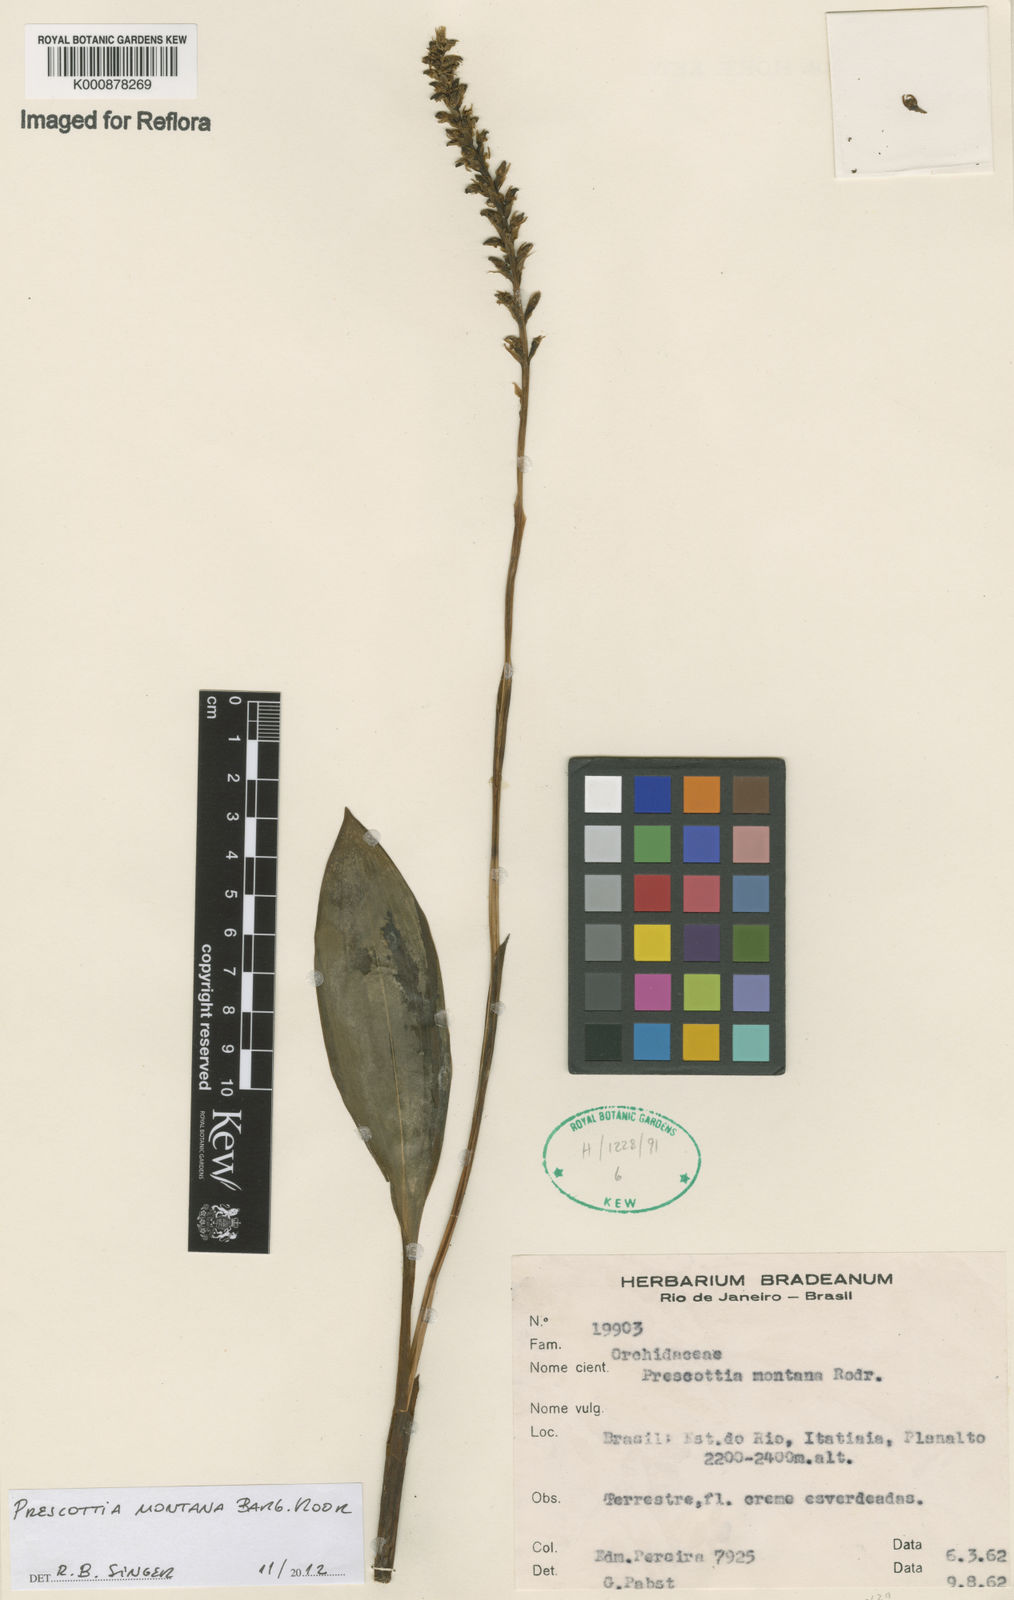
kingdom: Plantae
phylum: Tracheophyta
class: Liliopsida
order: Asparagales
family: Orchidaceae
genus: Prescottia
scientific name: Prescottia montana
